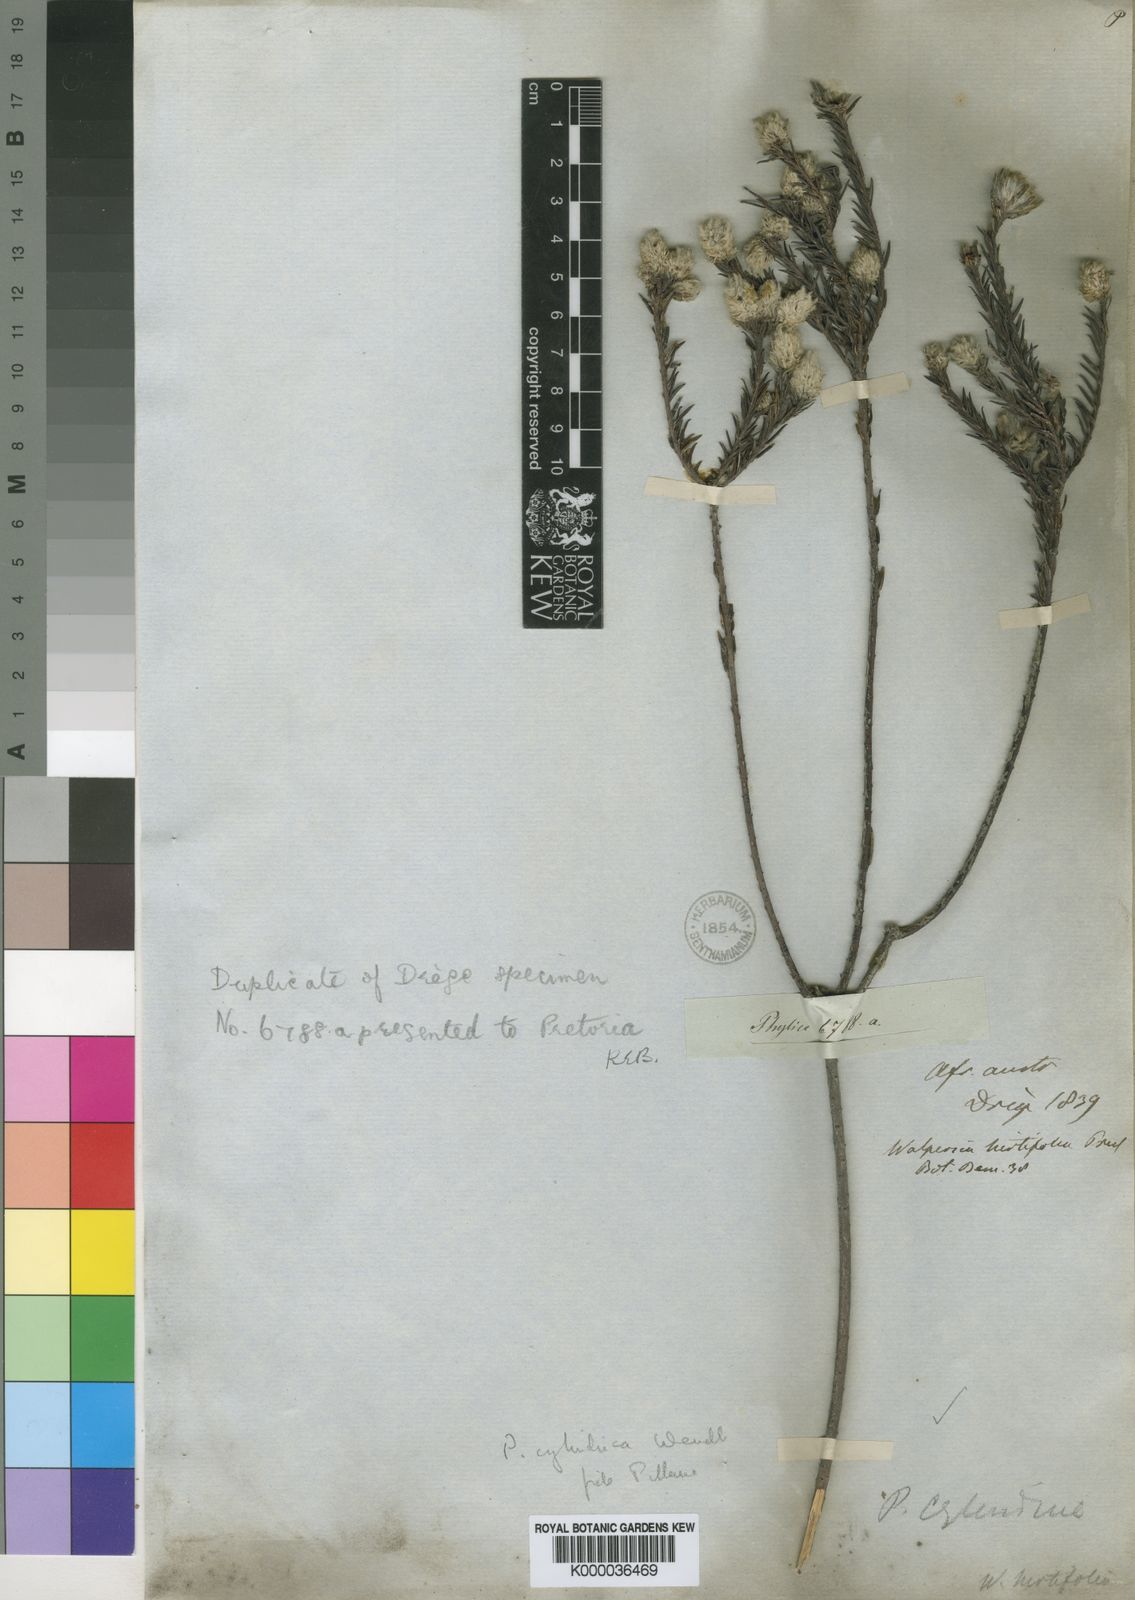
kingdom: Plantae
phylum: Tracheophyta
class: Magnoliopsida
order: Rosales
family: Rhamnaceae
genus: Phylica
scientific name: Phylica cylindrica
